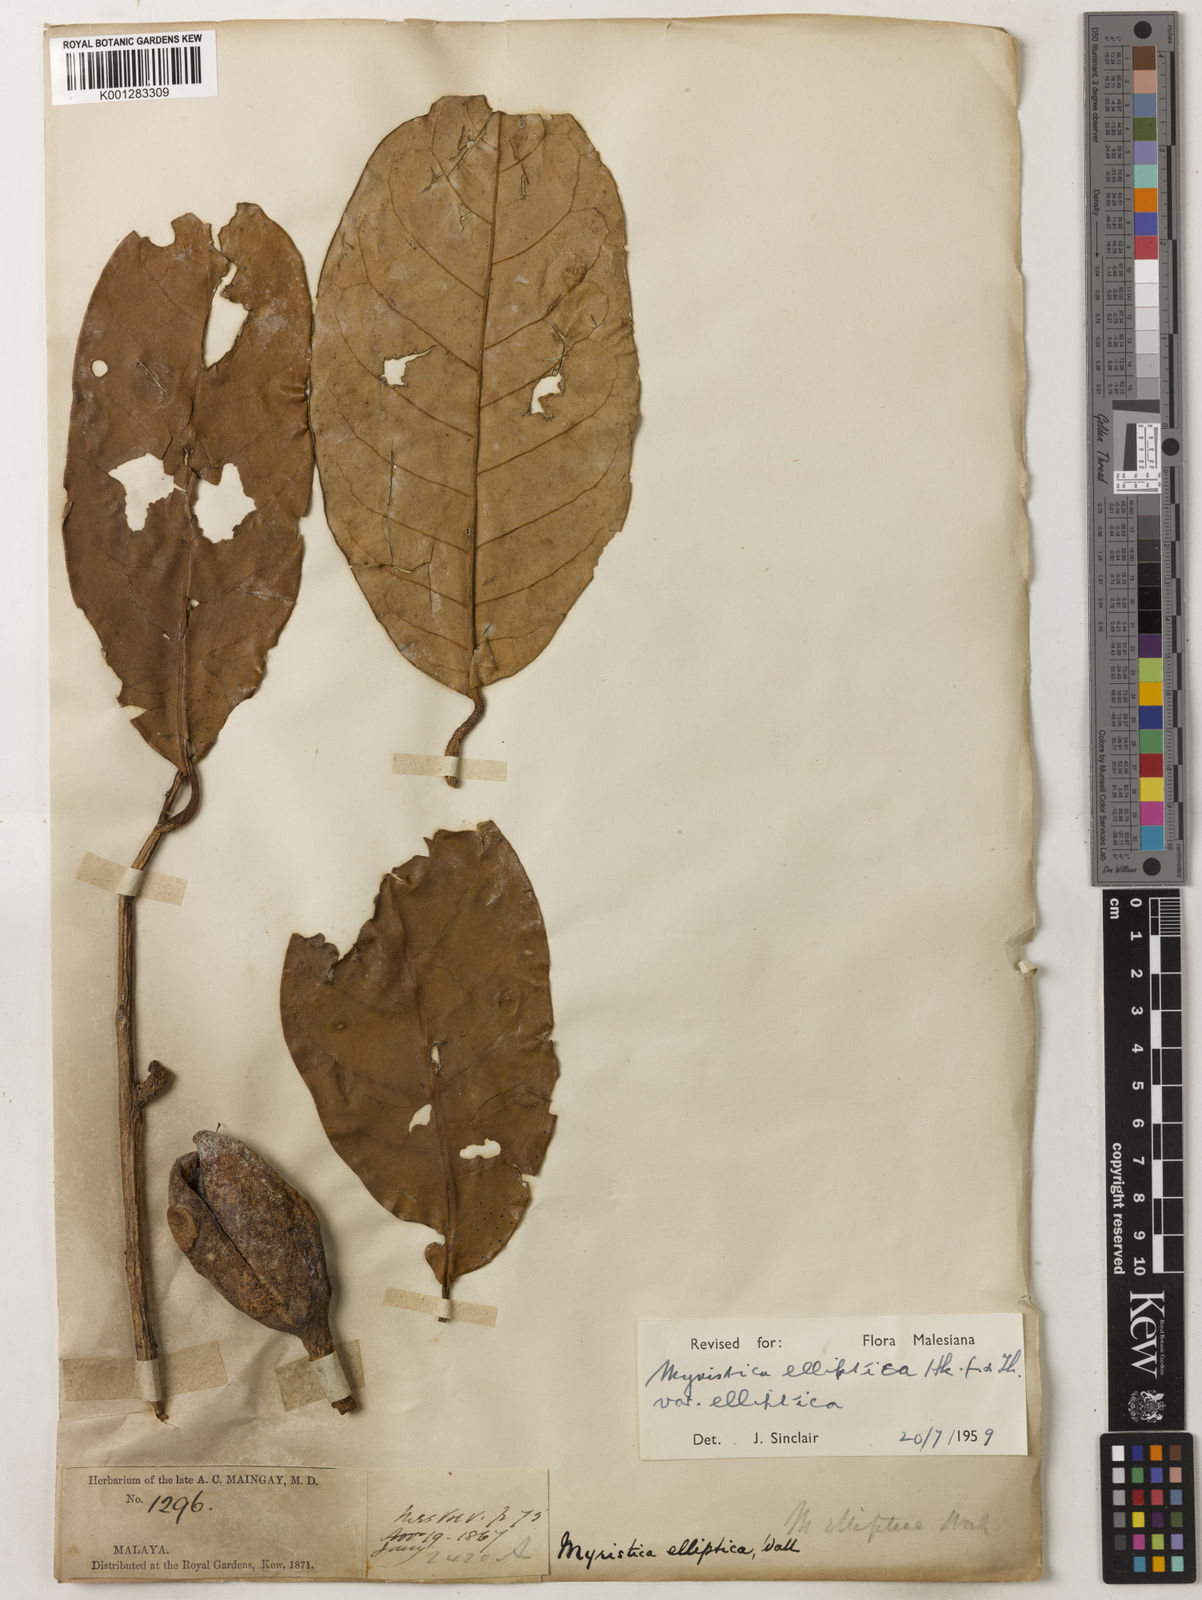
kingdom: Plantae
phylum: Tracheophyta
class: Magnoliopsida
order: Magnoliales
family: Myristicaceae
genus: Myristica
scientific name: Myristica elliptica
